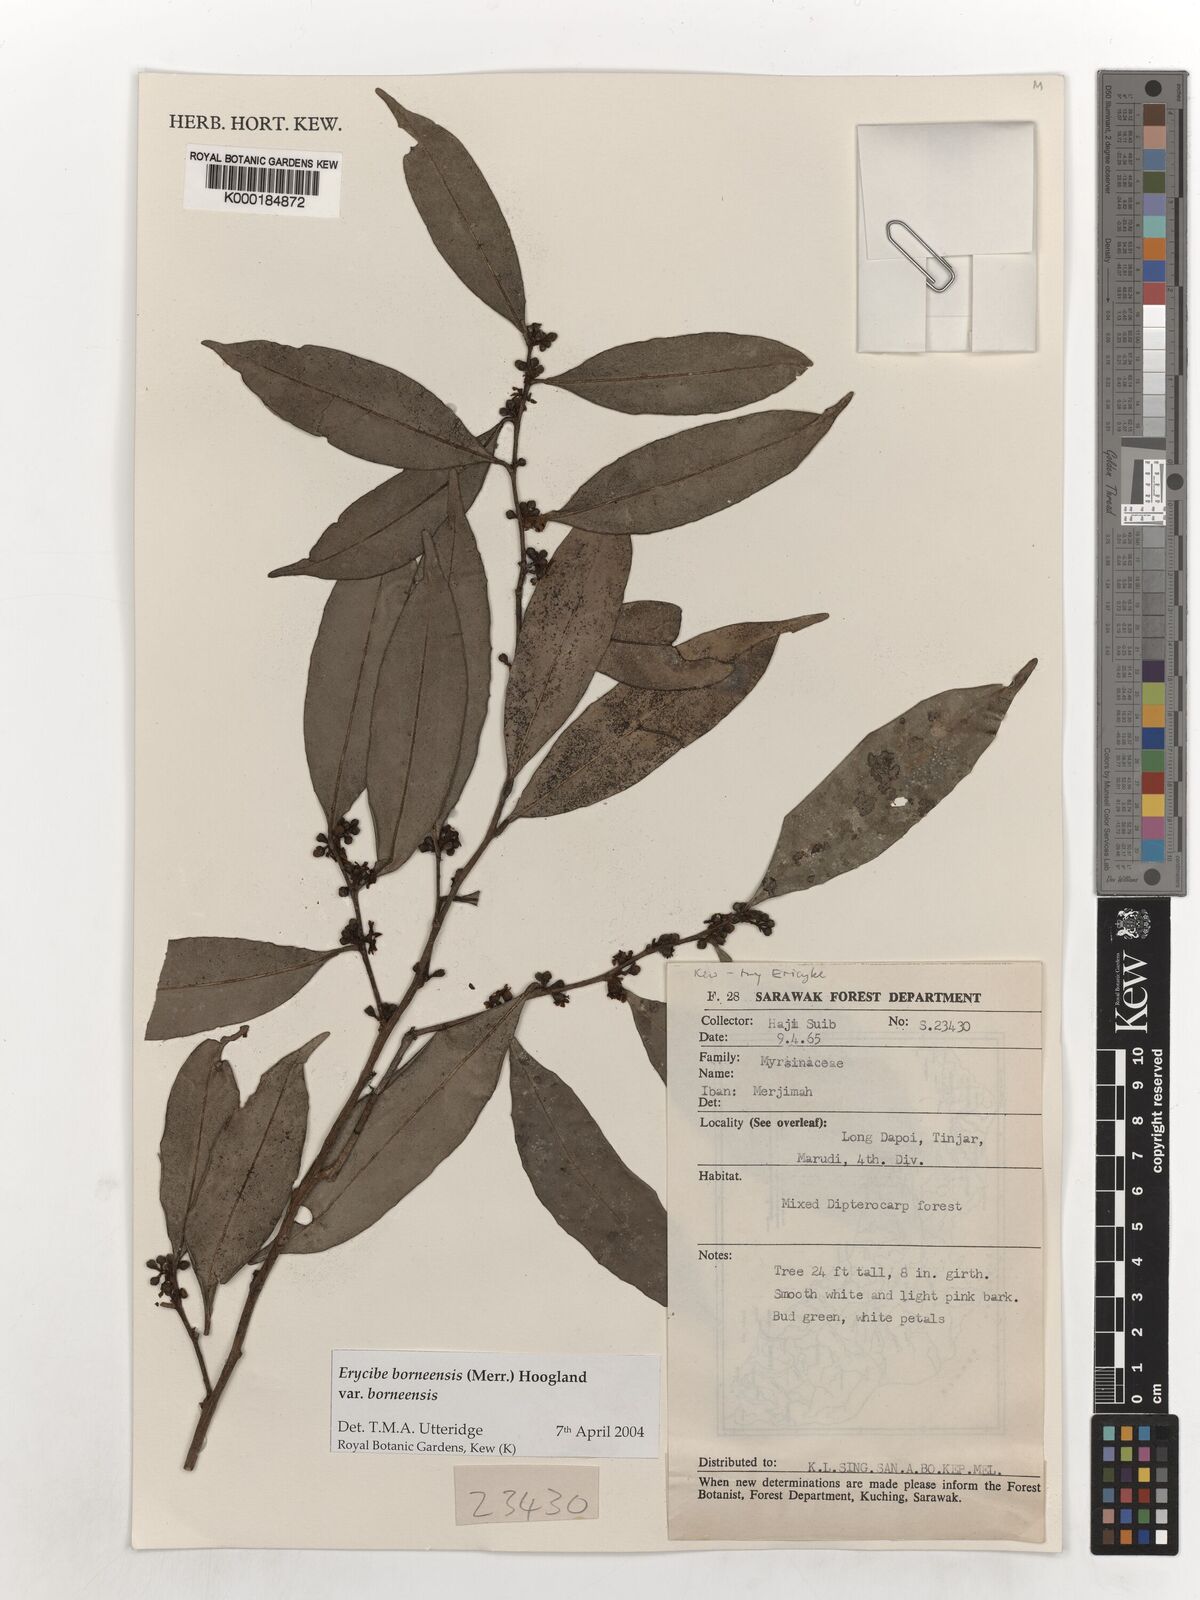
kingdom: Plantae
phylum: Tracheophyta
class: Magnoliopsida
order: Solanales
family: Convolvulaceae
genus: Erycibe
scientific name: Erycibe borneensis
